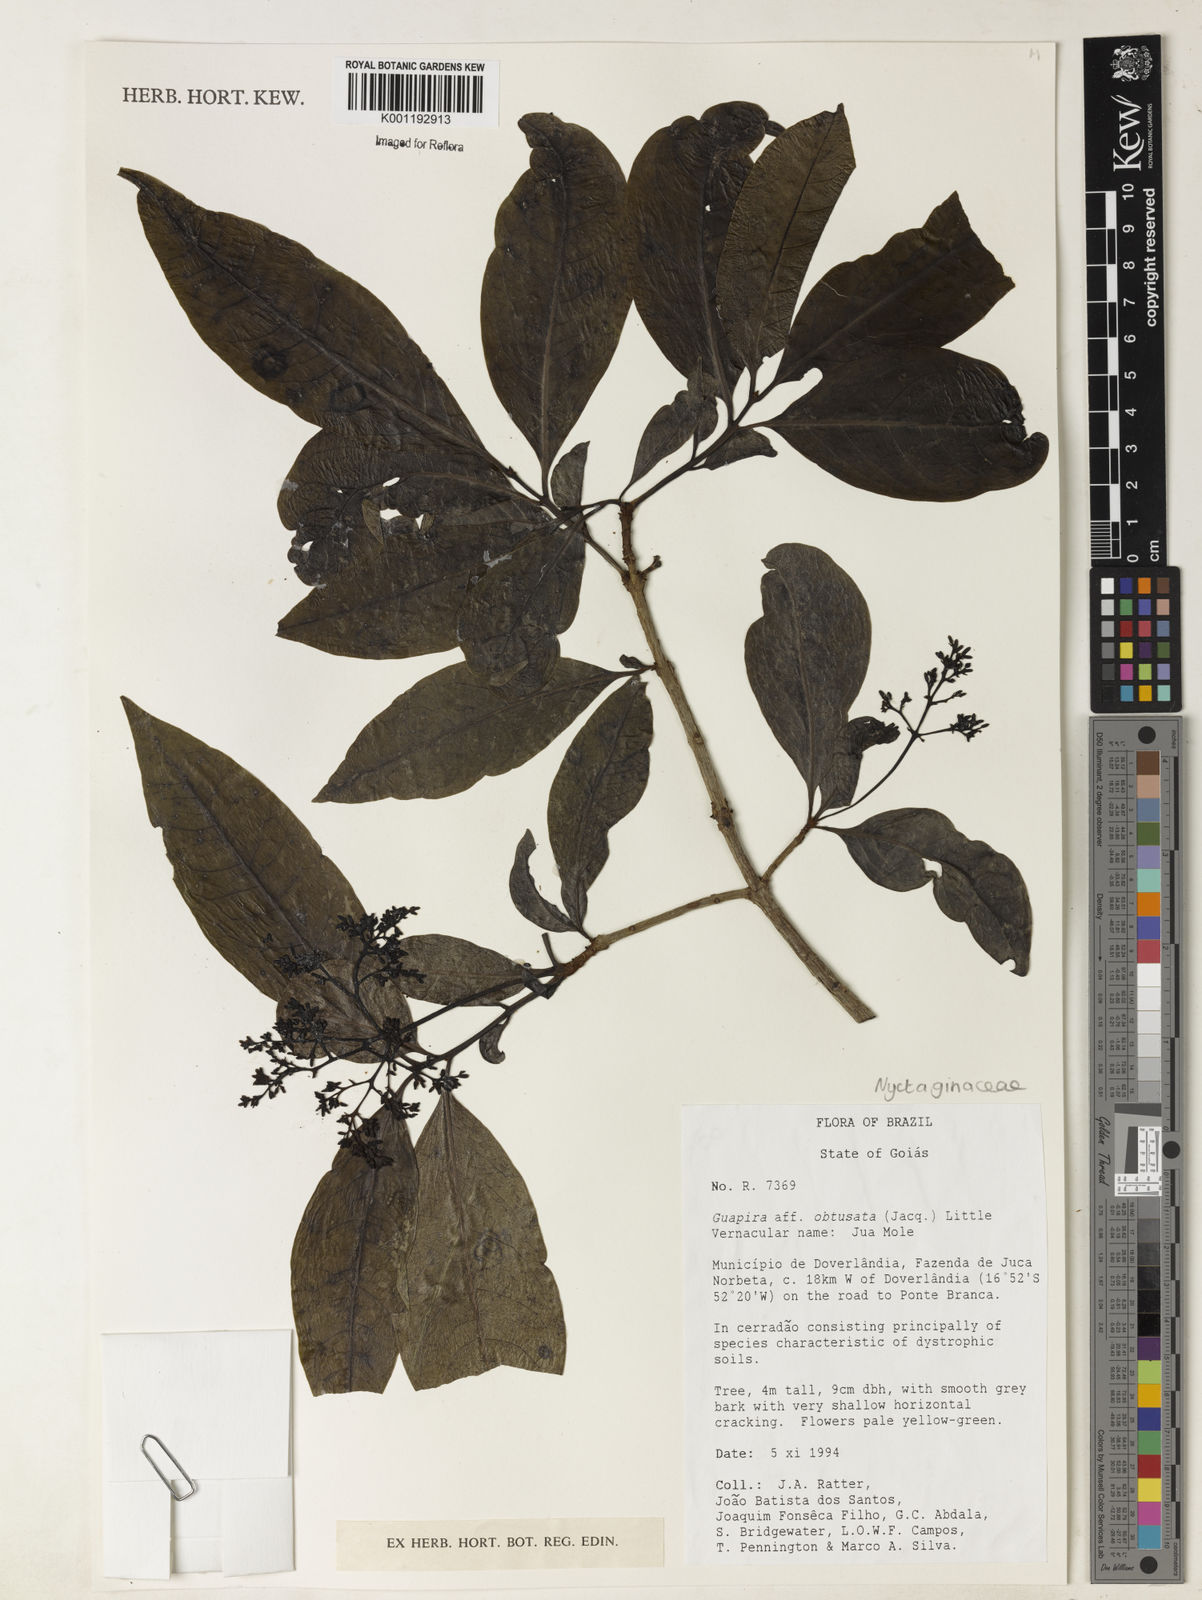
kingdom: Plantae
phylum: Tracheophyta
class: Magnoliopsida
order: Caryophyllales
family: Nyctaginaceae
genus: Guapira
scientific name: Guapira obtusata
